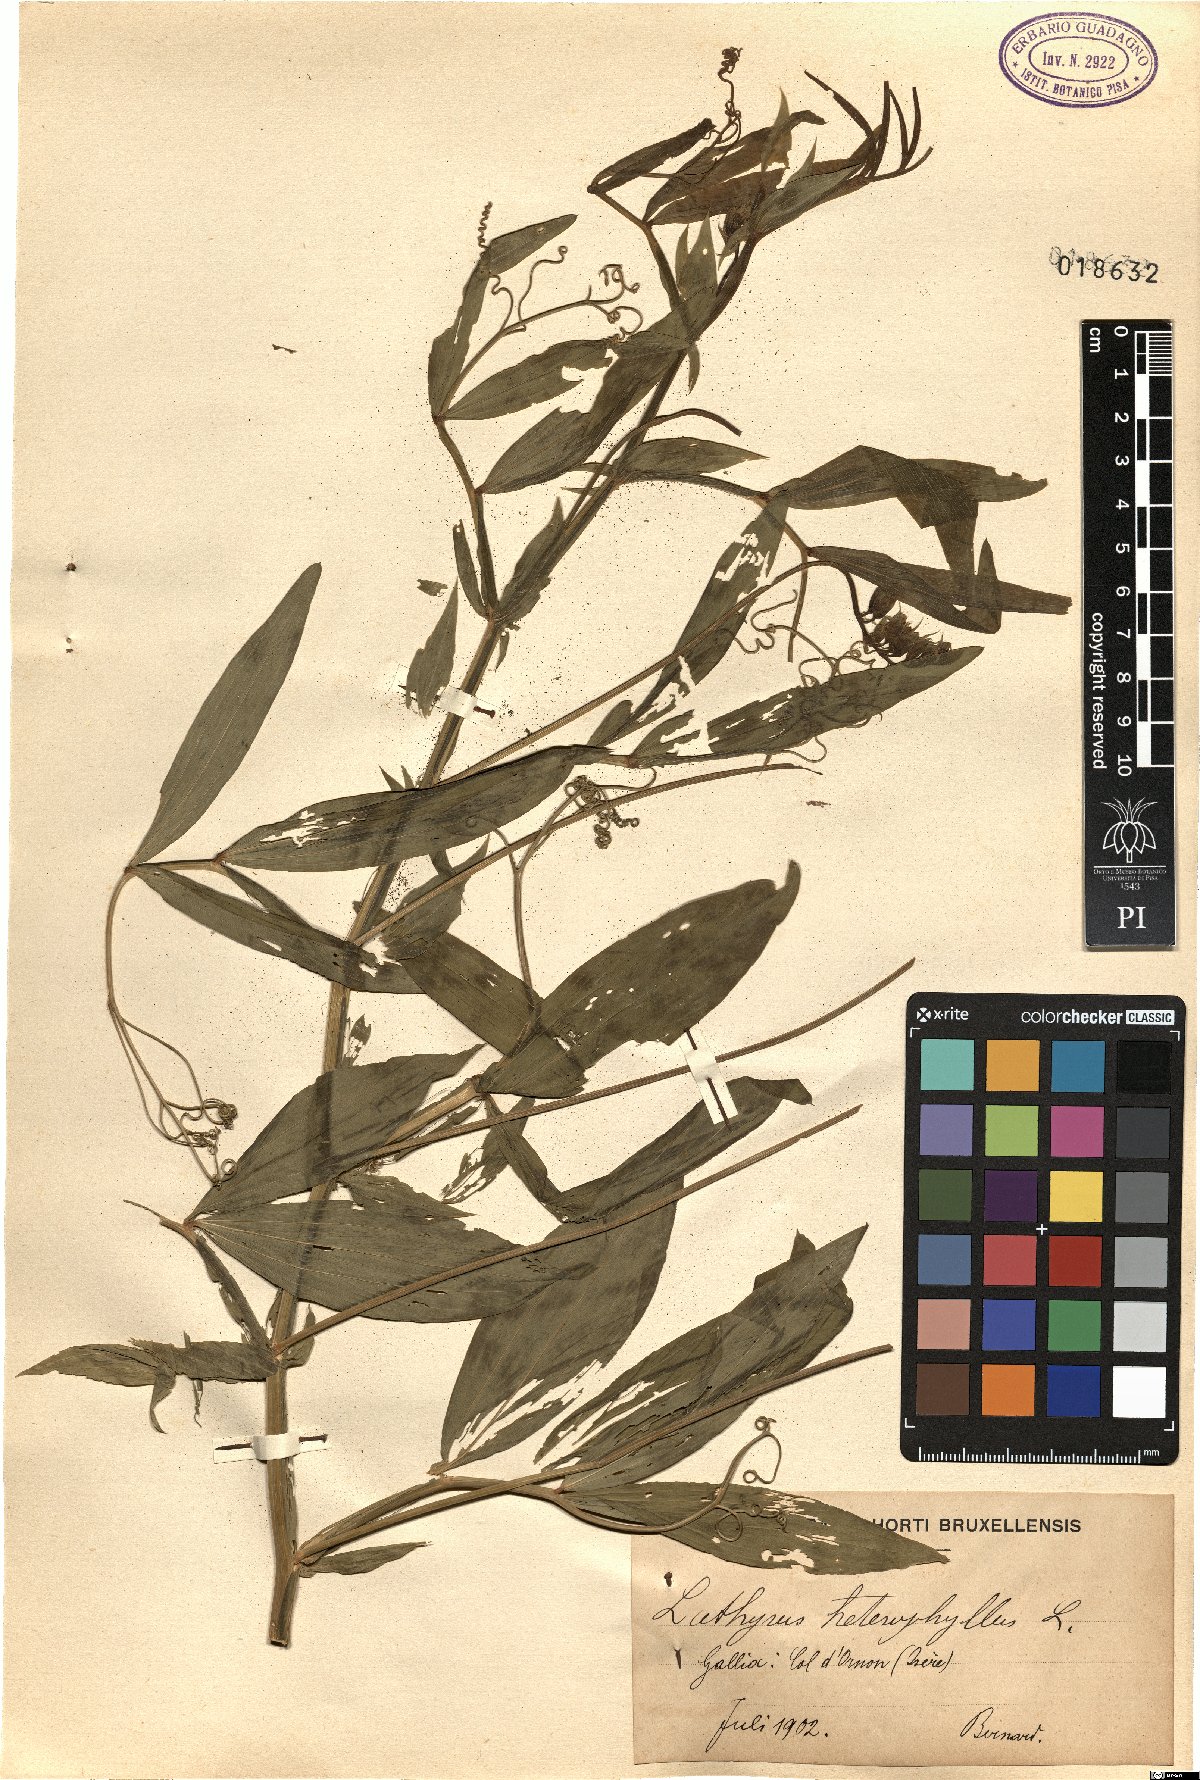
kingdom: Plantae
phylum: Tracheophyta
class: Magnoliopsida
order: Fabales
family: Fabaceae
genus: Lathyrus
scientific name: Lathyrus heterophyllus
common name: Norfolk everlasting-pea
